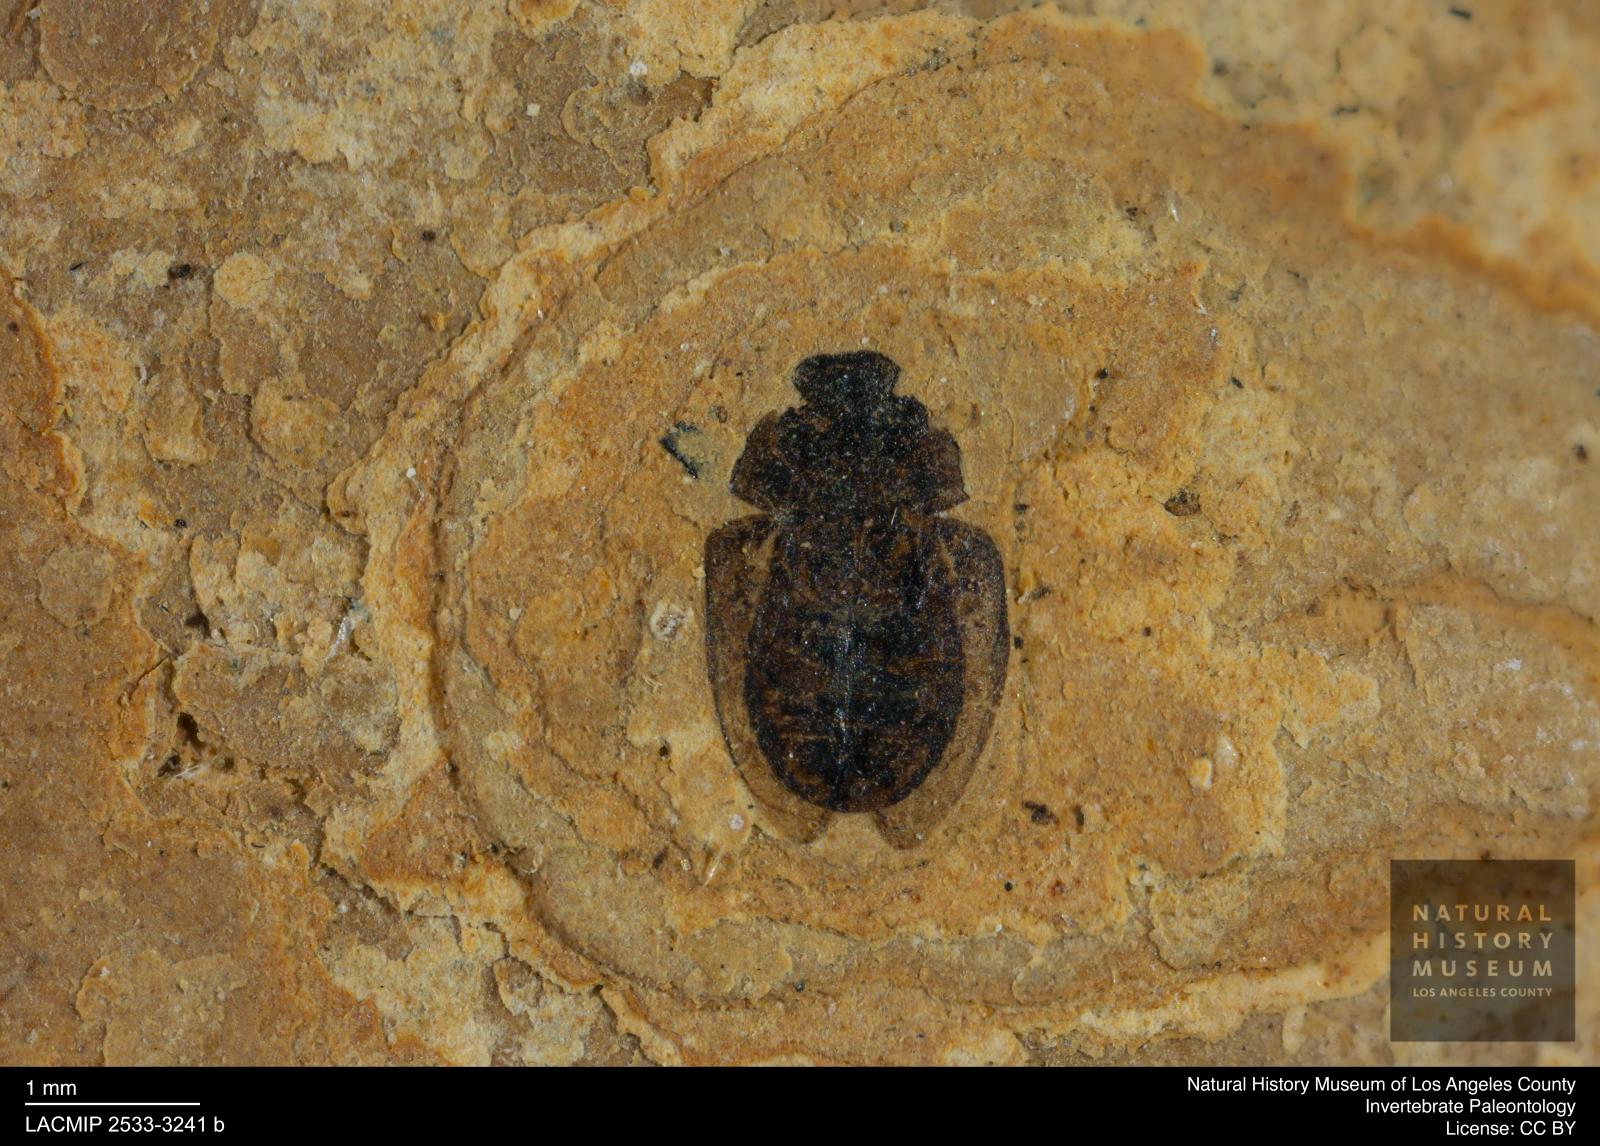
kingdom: Animalia
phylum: Arthropoda
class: Insecta
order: Coleoptera
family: Hydrophilidae
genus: Paracymus
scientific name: Paracymus excitatus
